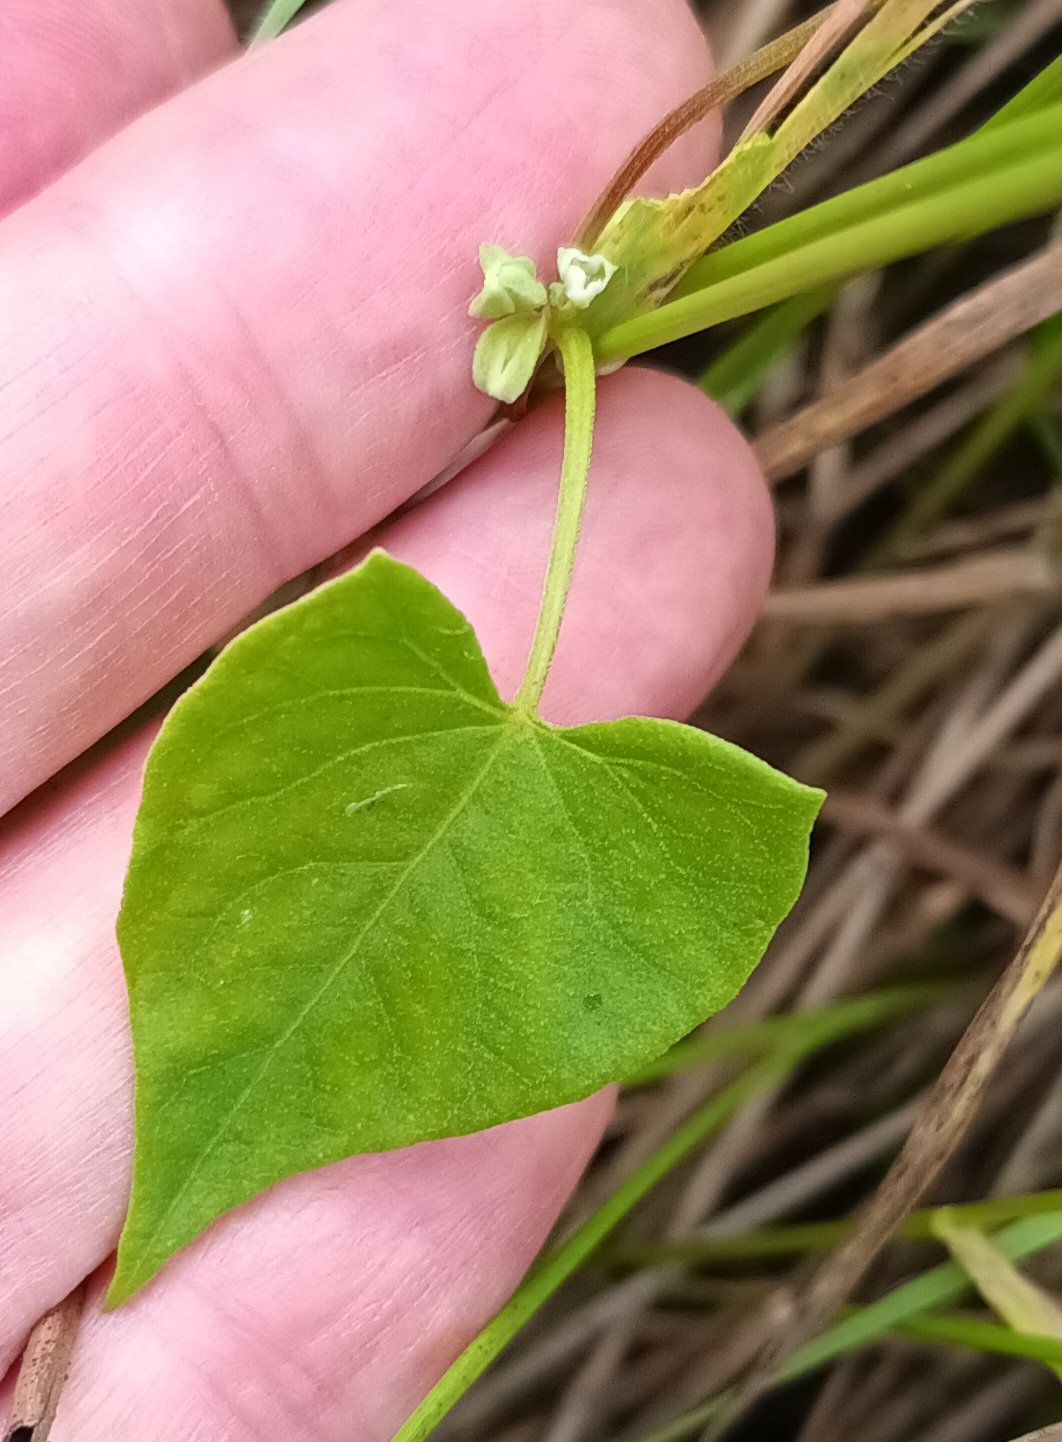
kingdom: Plantae
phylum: Tracheophyta
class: Magnoliopsida
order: Caryophyllales
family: Polygonaceae
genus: Fallopia
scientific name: Fallopia convolvulus
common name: Snerle-pileurt
